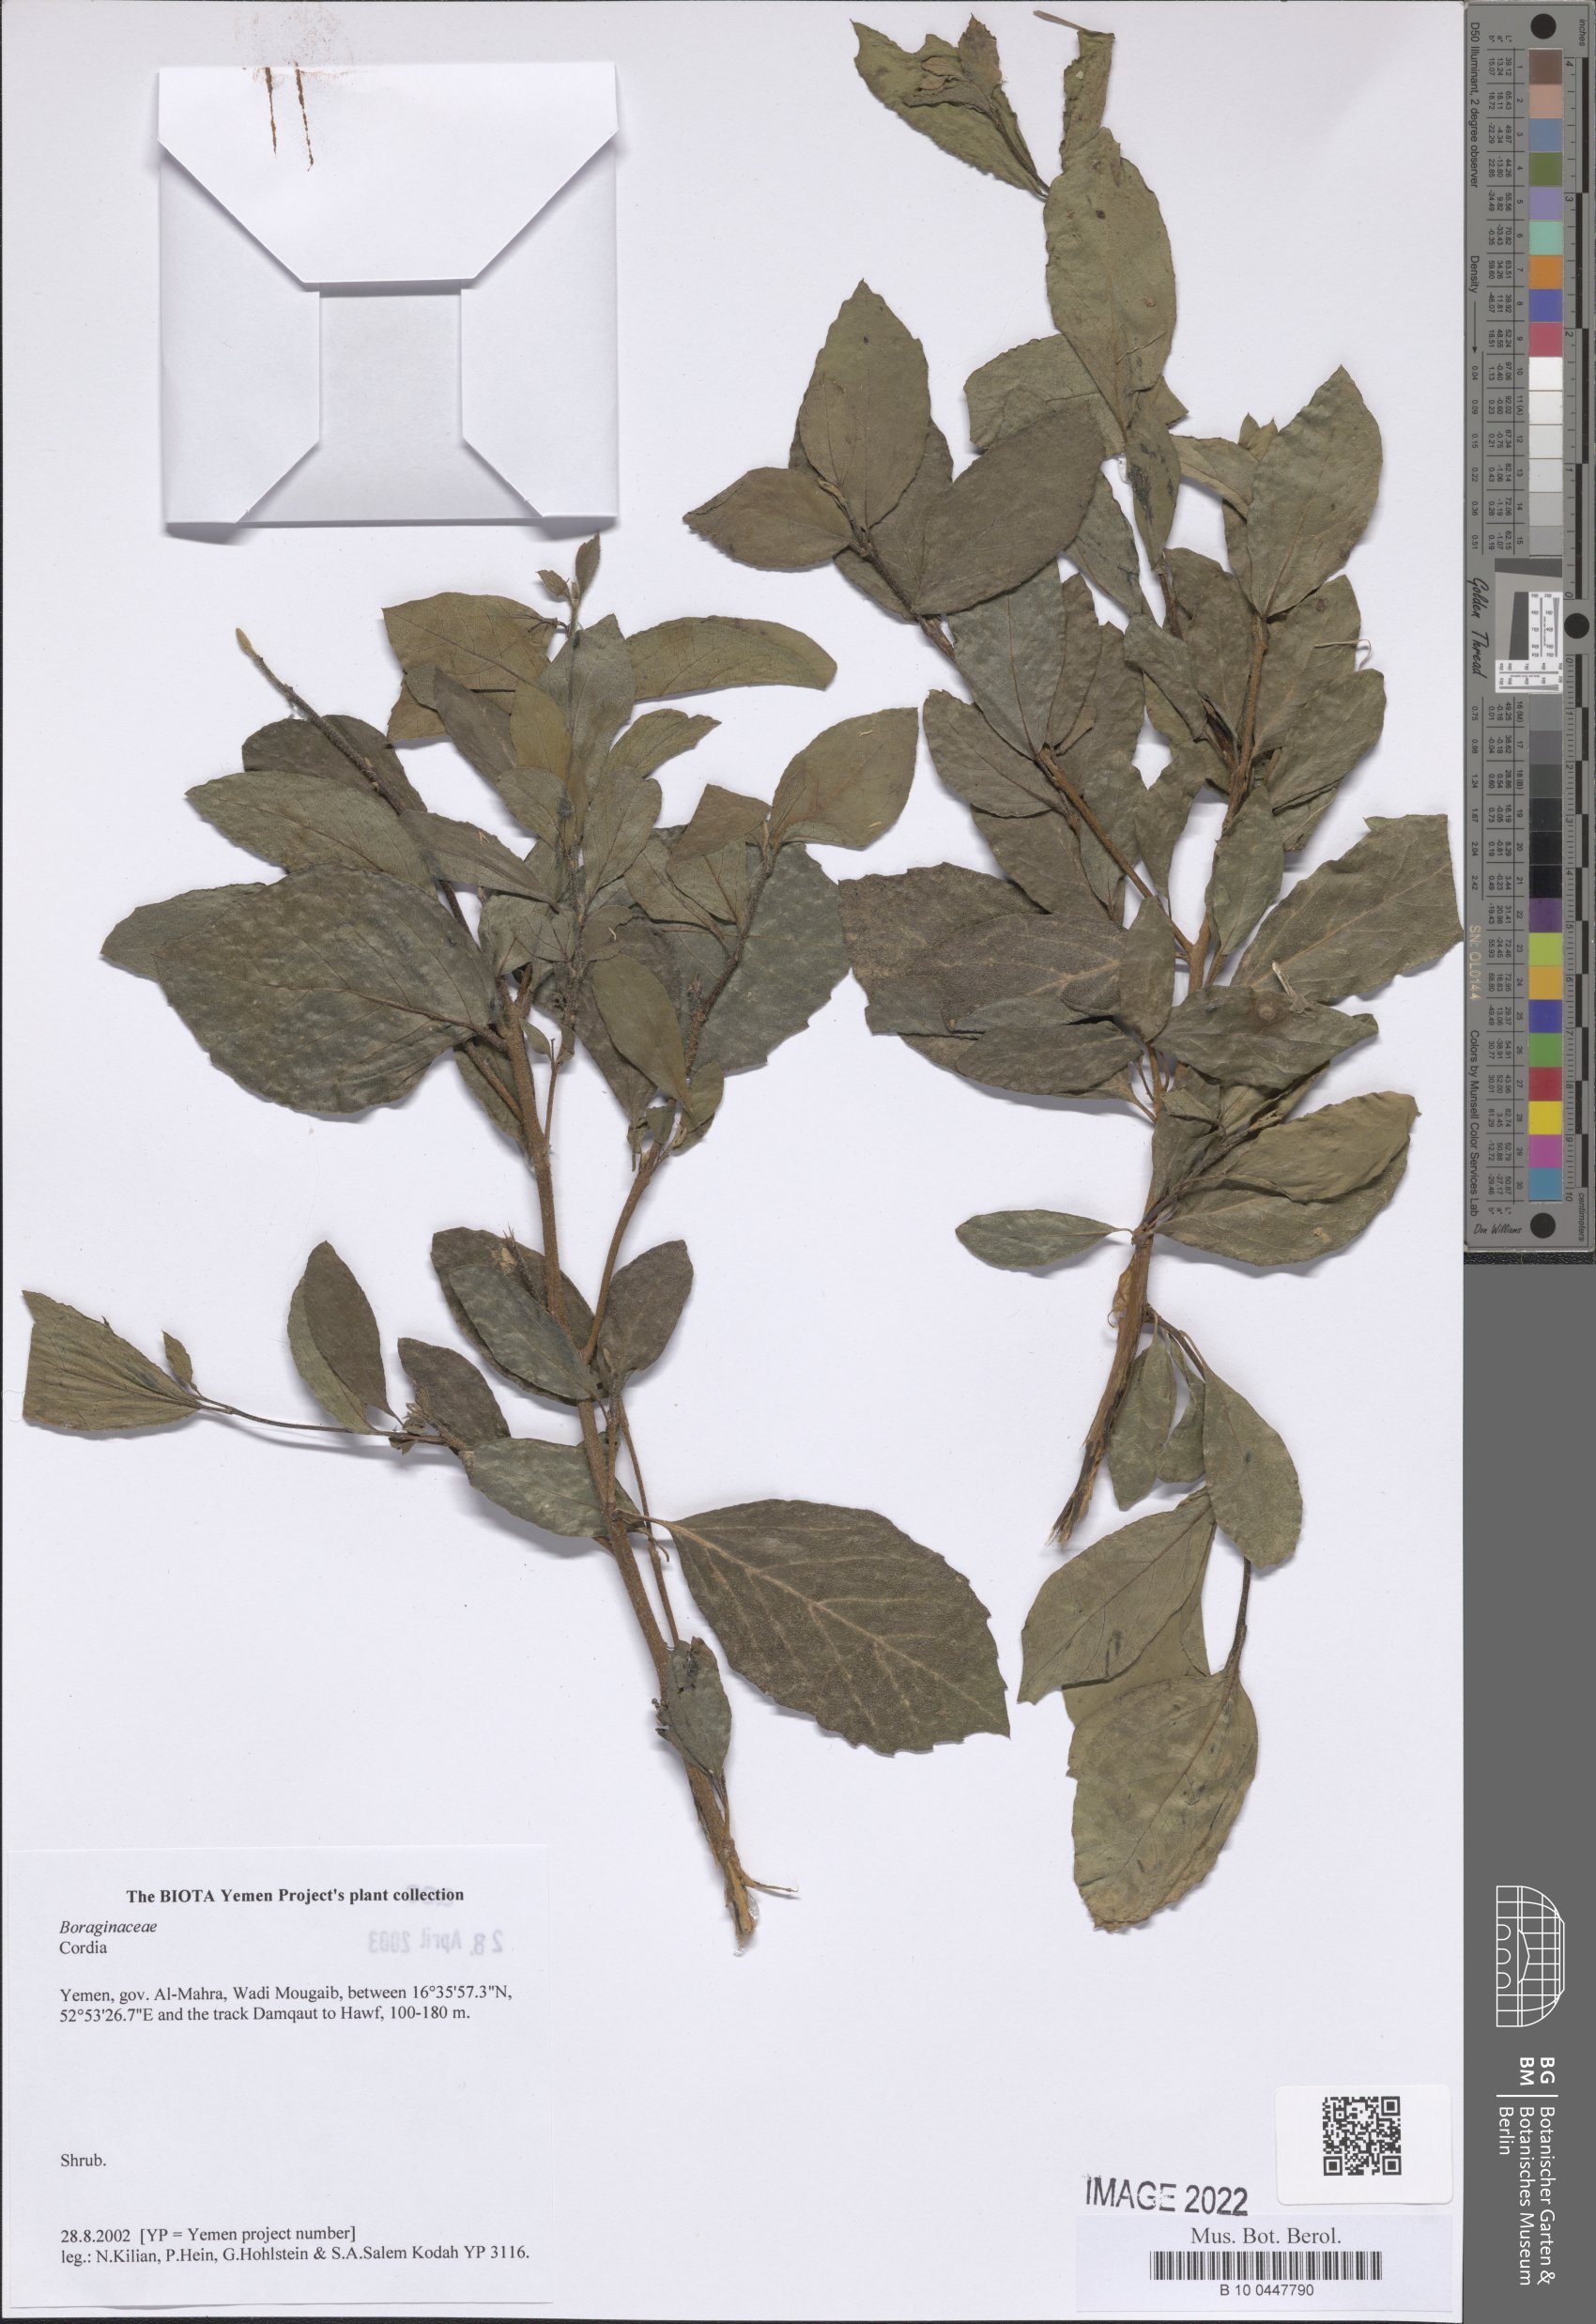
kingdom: Plantae
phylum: Tracheophyta
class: Magnoliopsida
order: Boraginales
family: Cordiaceae
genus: Cordia
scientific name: Cordia
